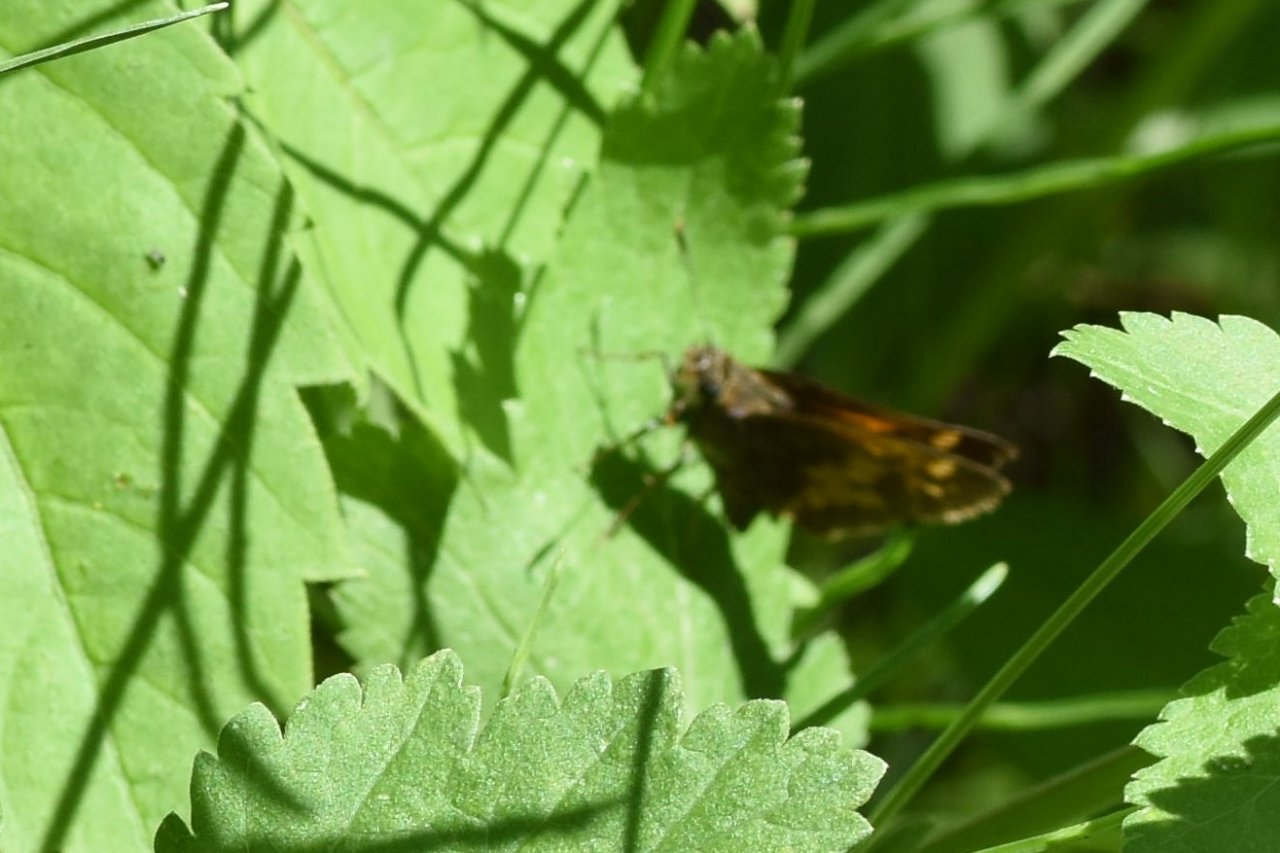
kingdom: Animalia
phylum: Arthropoda
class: Insecta
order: Lepidoptera
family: Hesperiidae
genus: Lon
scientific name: Lon hobomok
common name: Hobomok Skipper
